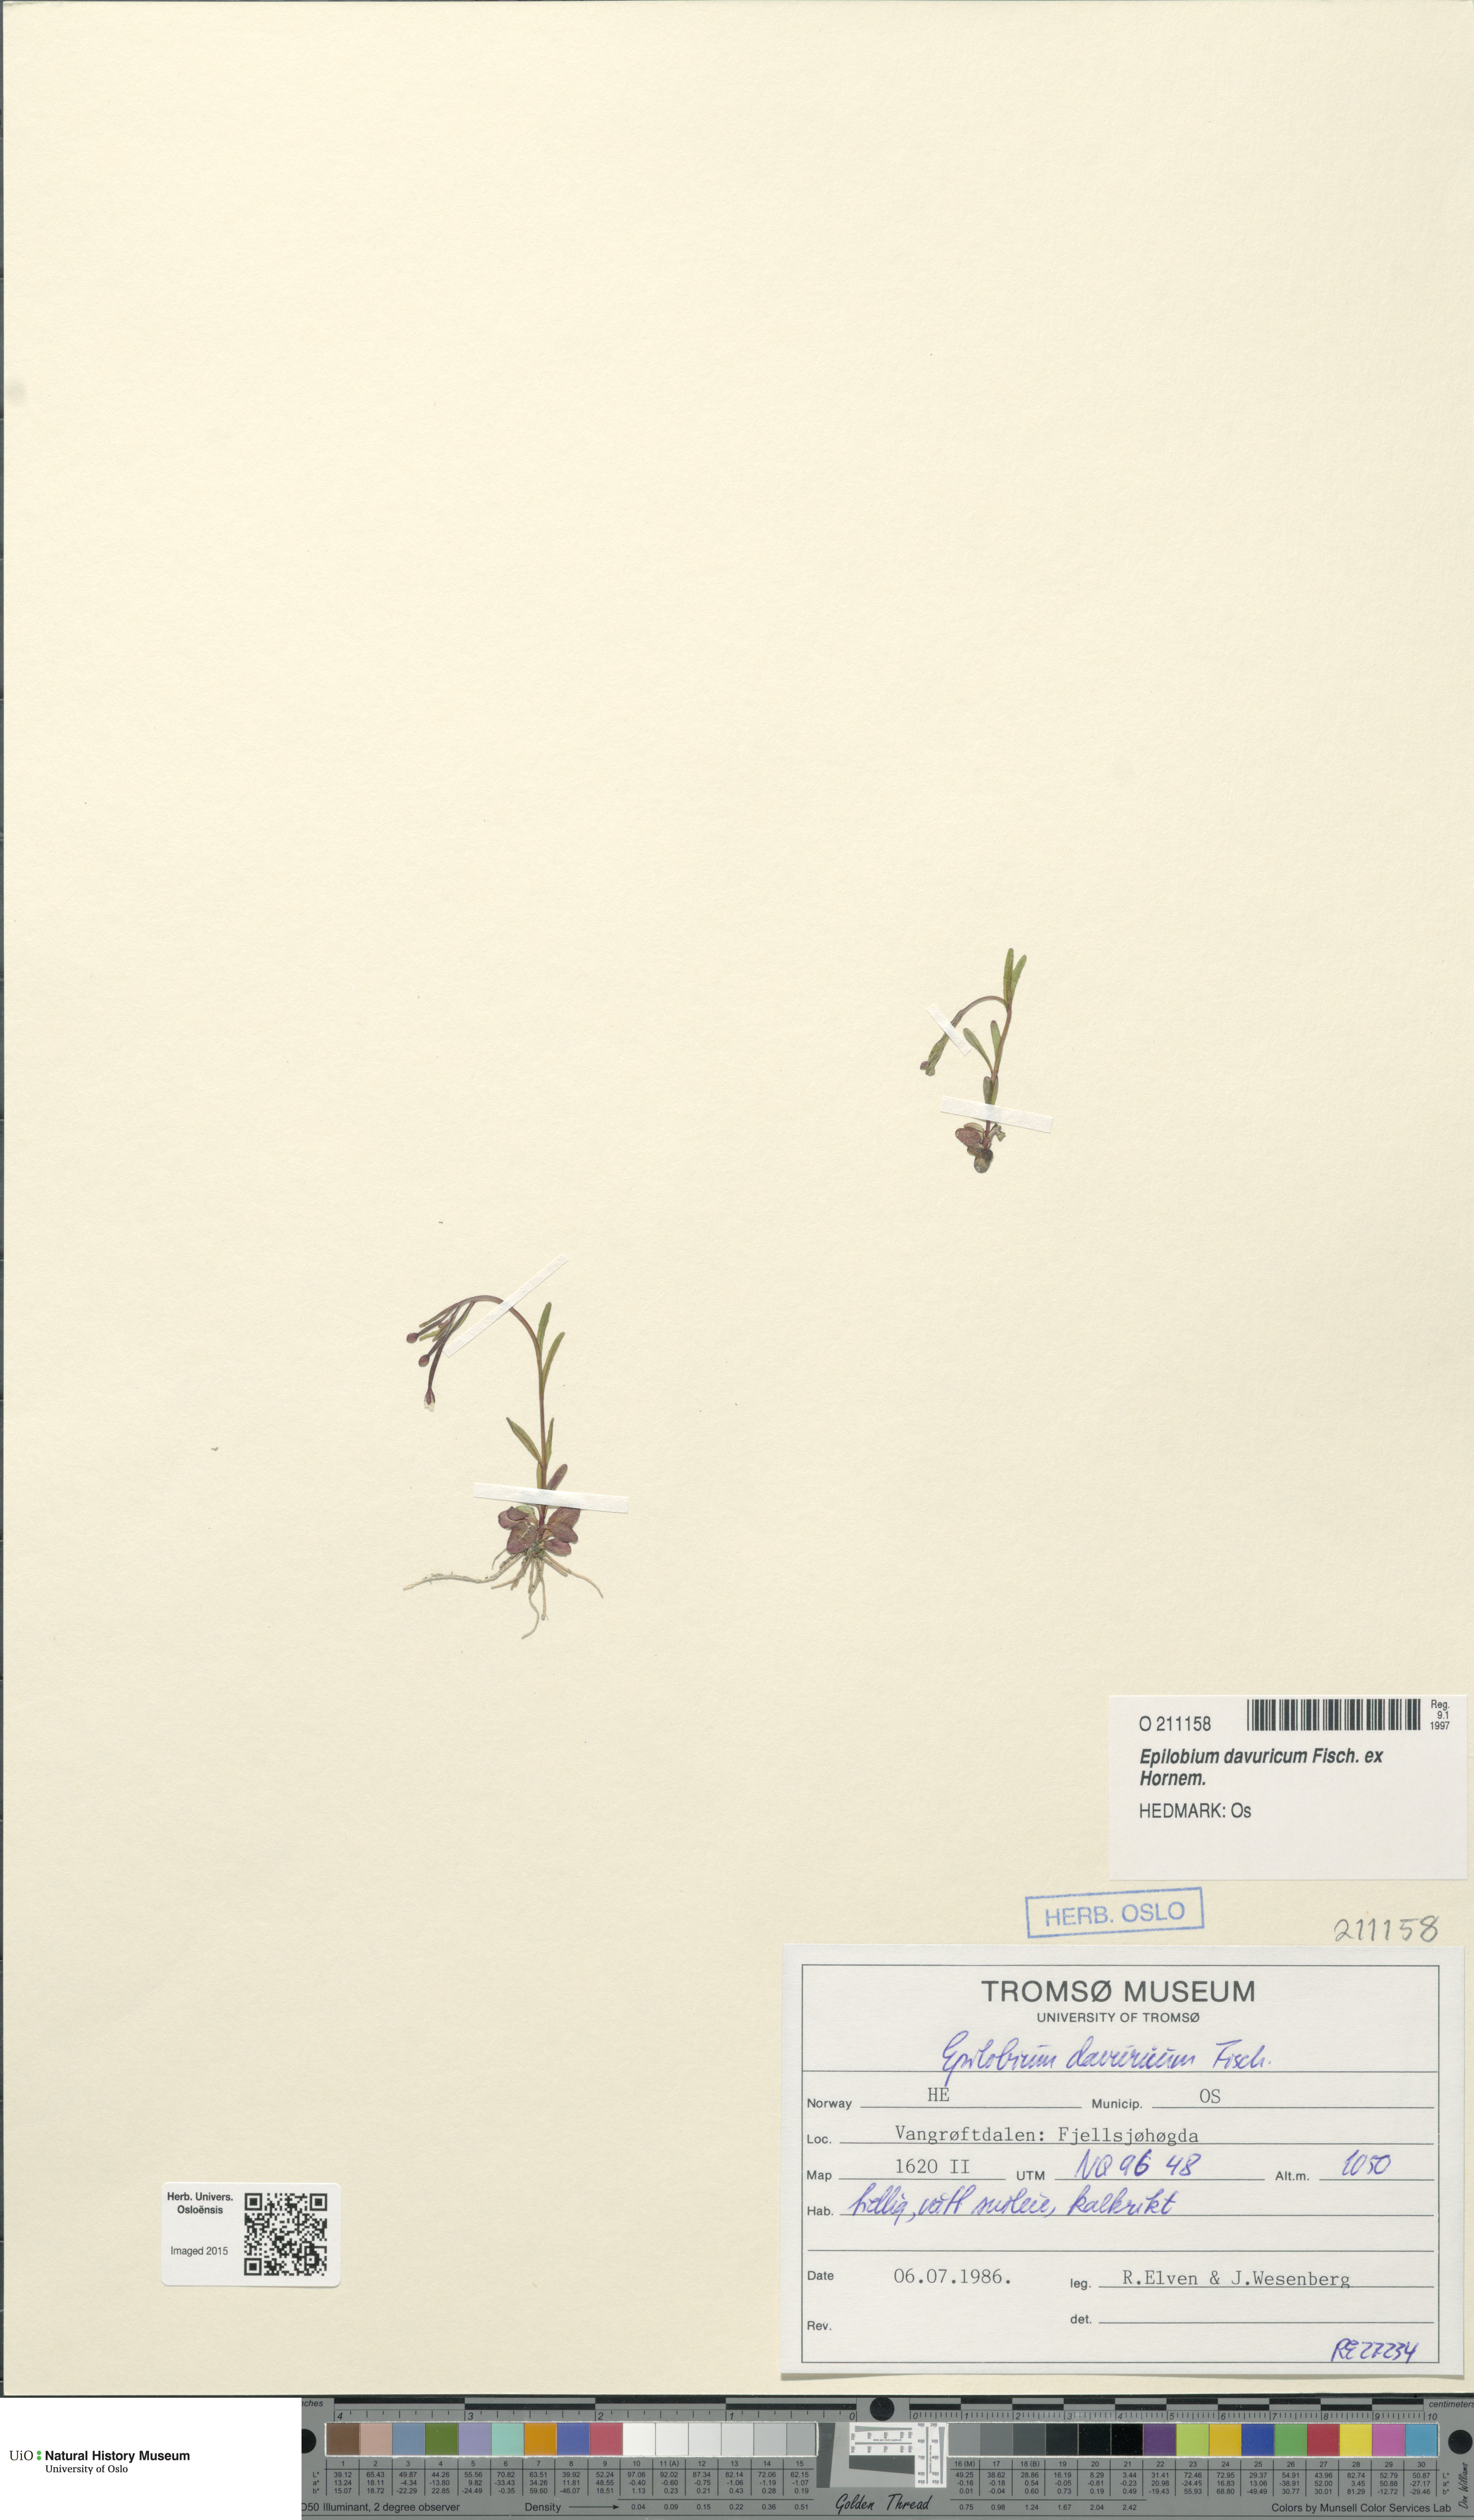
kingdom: Plantae
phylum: Tracheophyta
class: Magnoliopsida
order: Myrtales
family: Onagraceae
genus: Epilobium
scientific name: Epilobium davuricum
